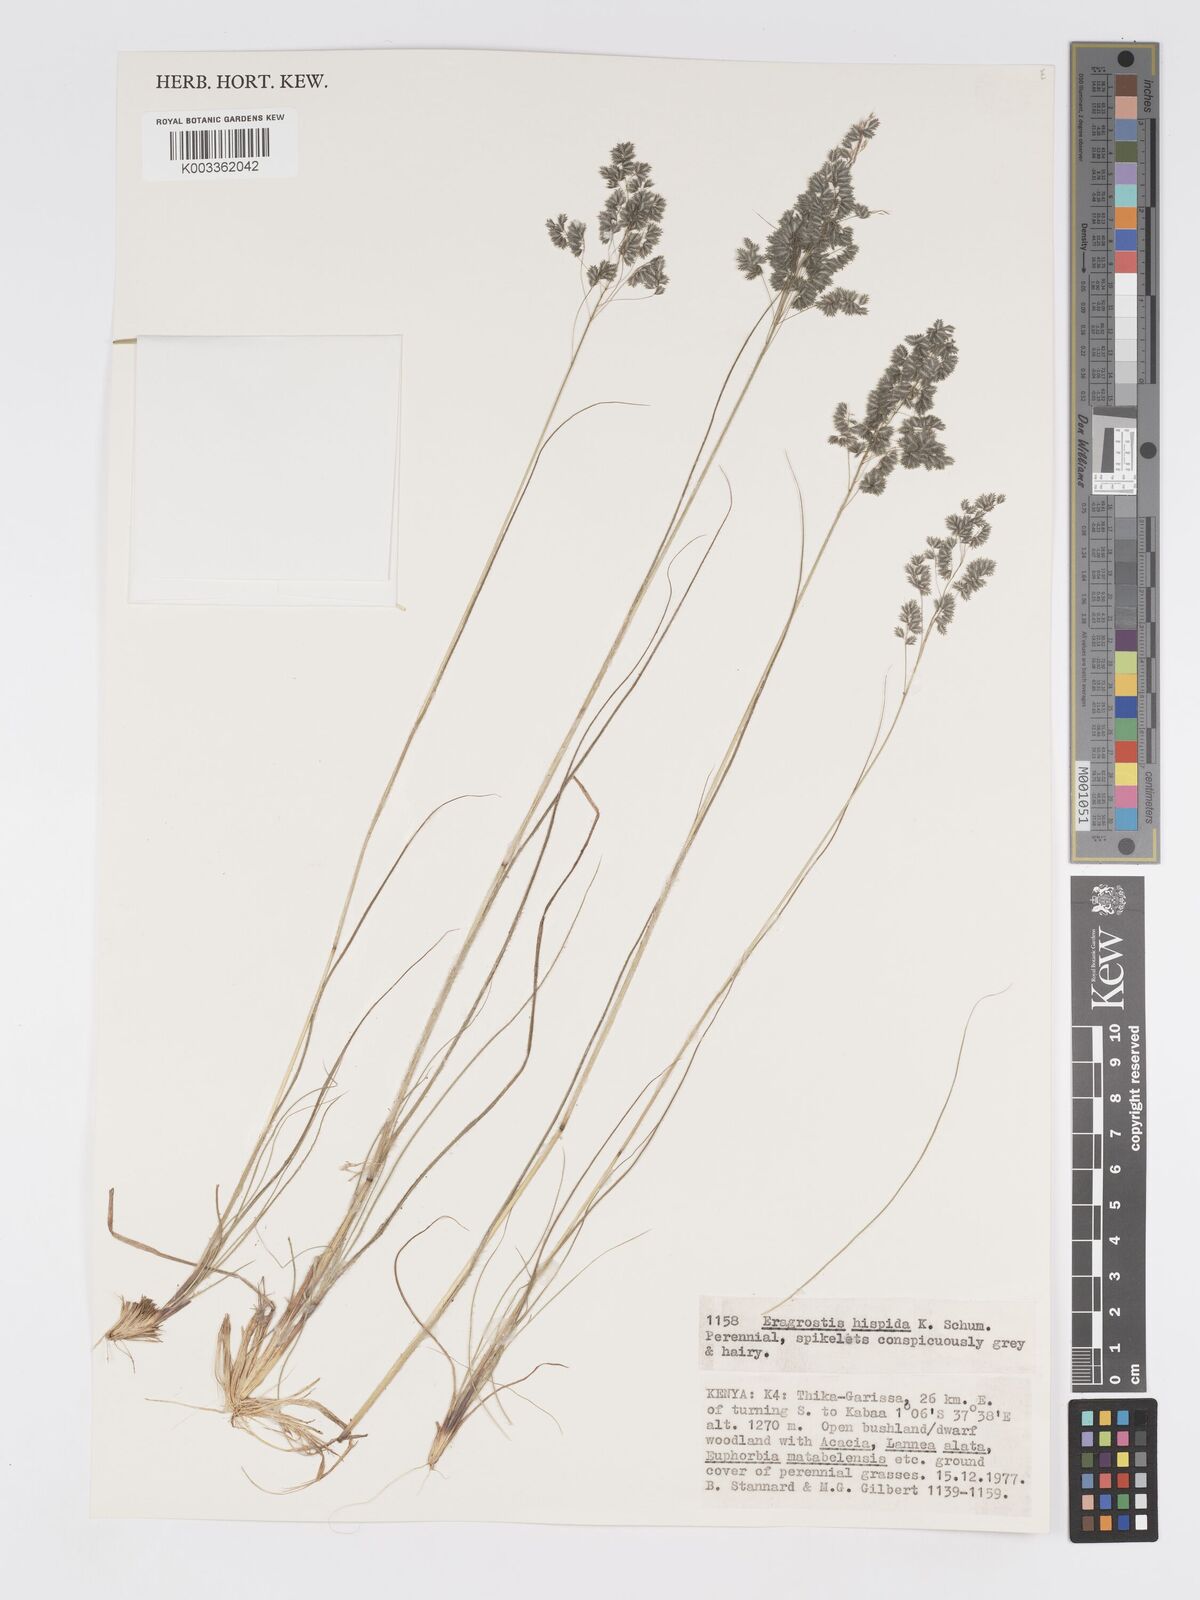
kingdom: Plantae
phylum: Tracheophyta
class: Liliopsida
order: Poales
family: Poaceae
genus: Eragrostis
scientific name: Eragrostis hispida
